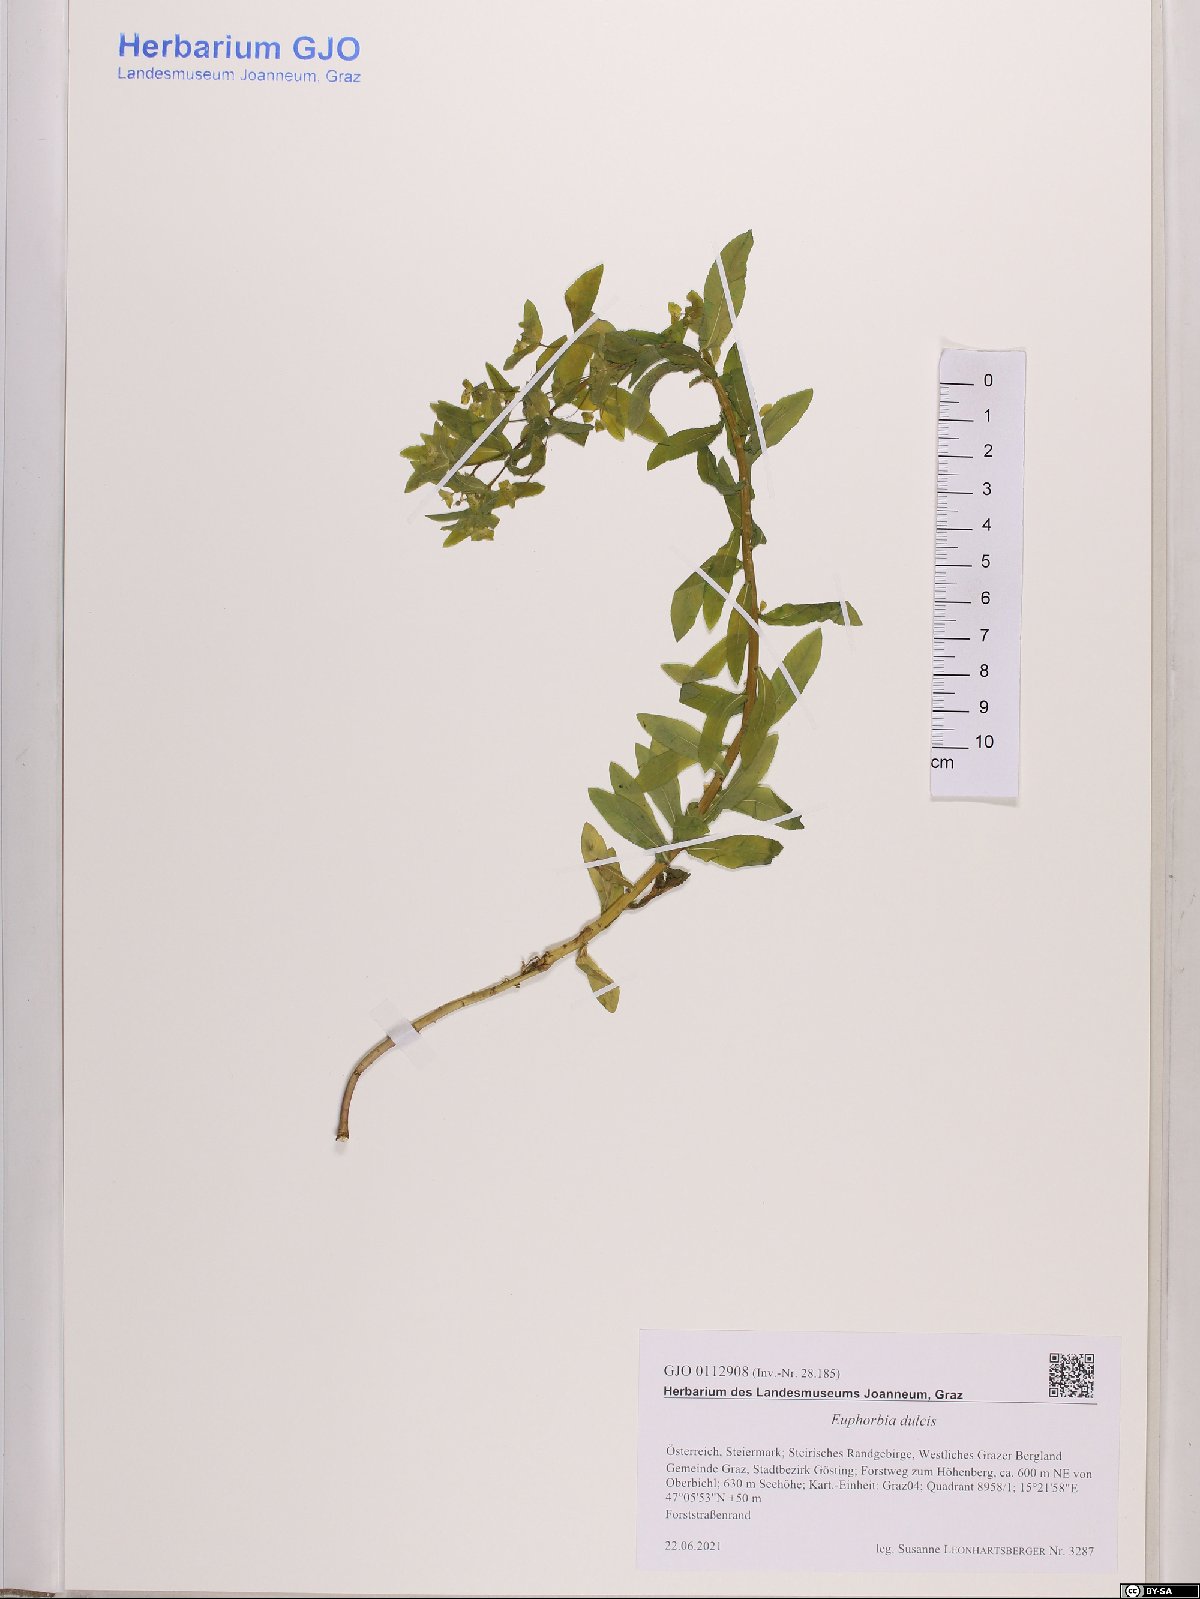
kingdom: Plantae
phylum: Tracheophyta
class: Magnoliopsida
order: Malpighiales
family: Euphorbiaceae
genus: Euphorbia
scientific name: Euphorbia dulcis
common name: Sweet spurge
